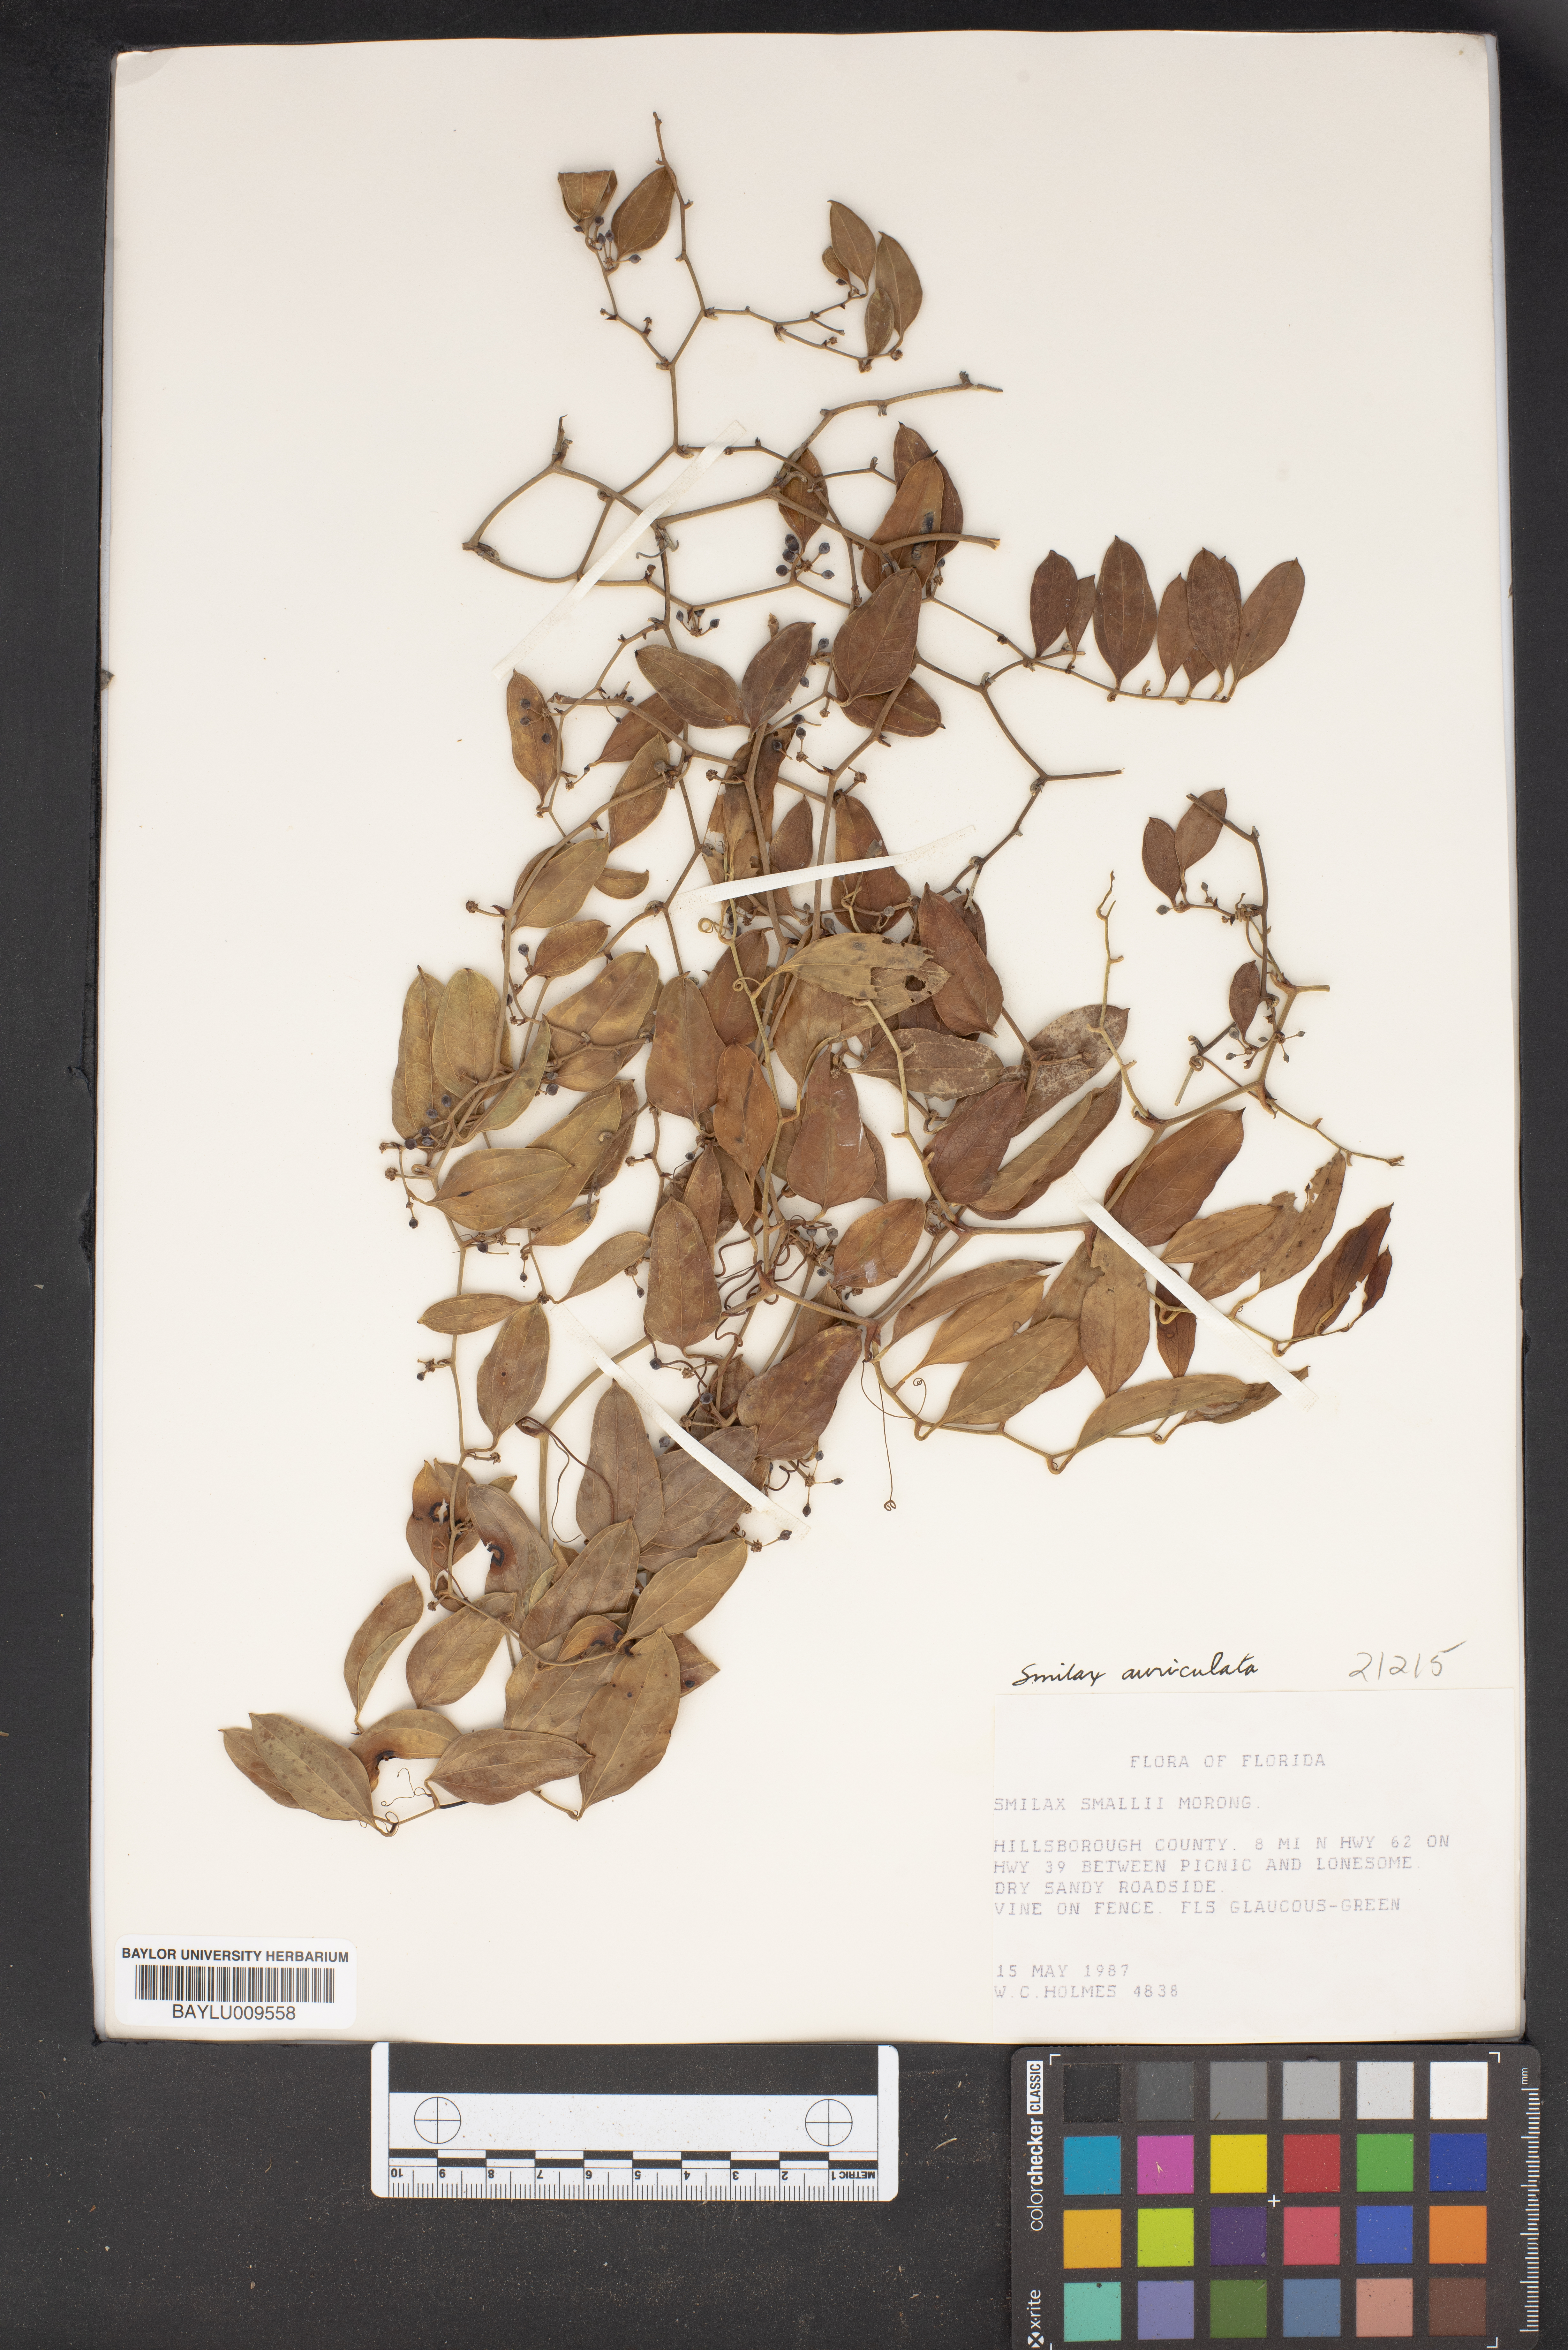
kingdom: Plantae
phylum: Tracheophyta
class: Liliopsida
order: Liliales
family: Smilacaceae
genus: Smilax
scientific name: Smilax maritima
